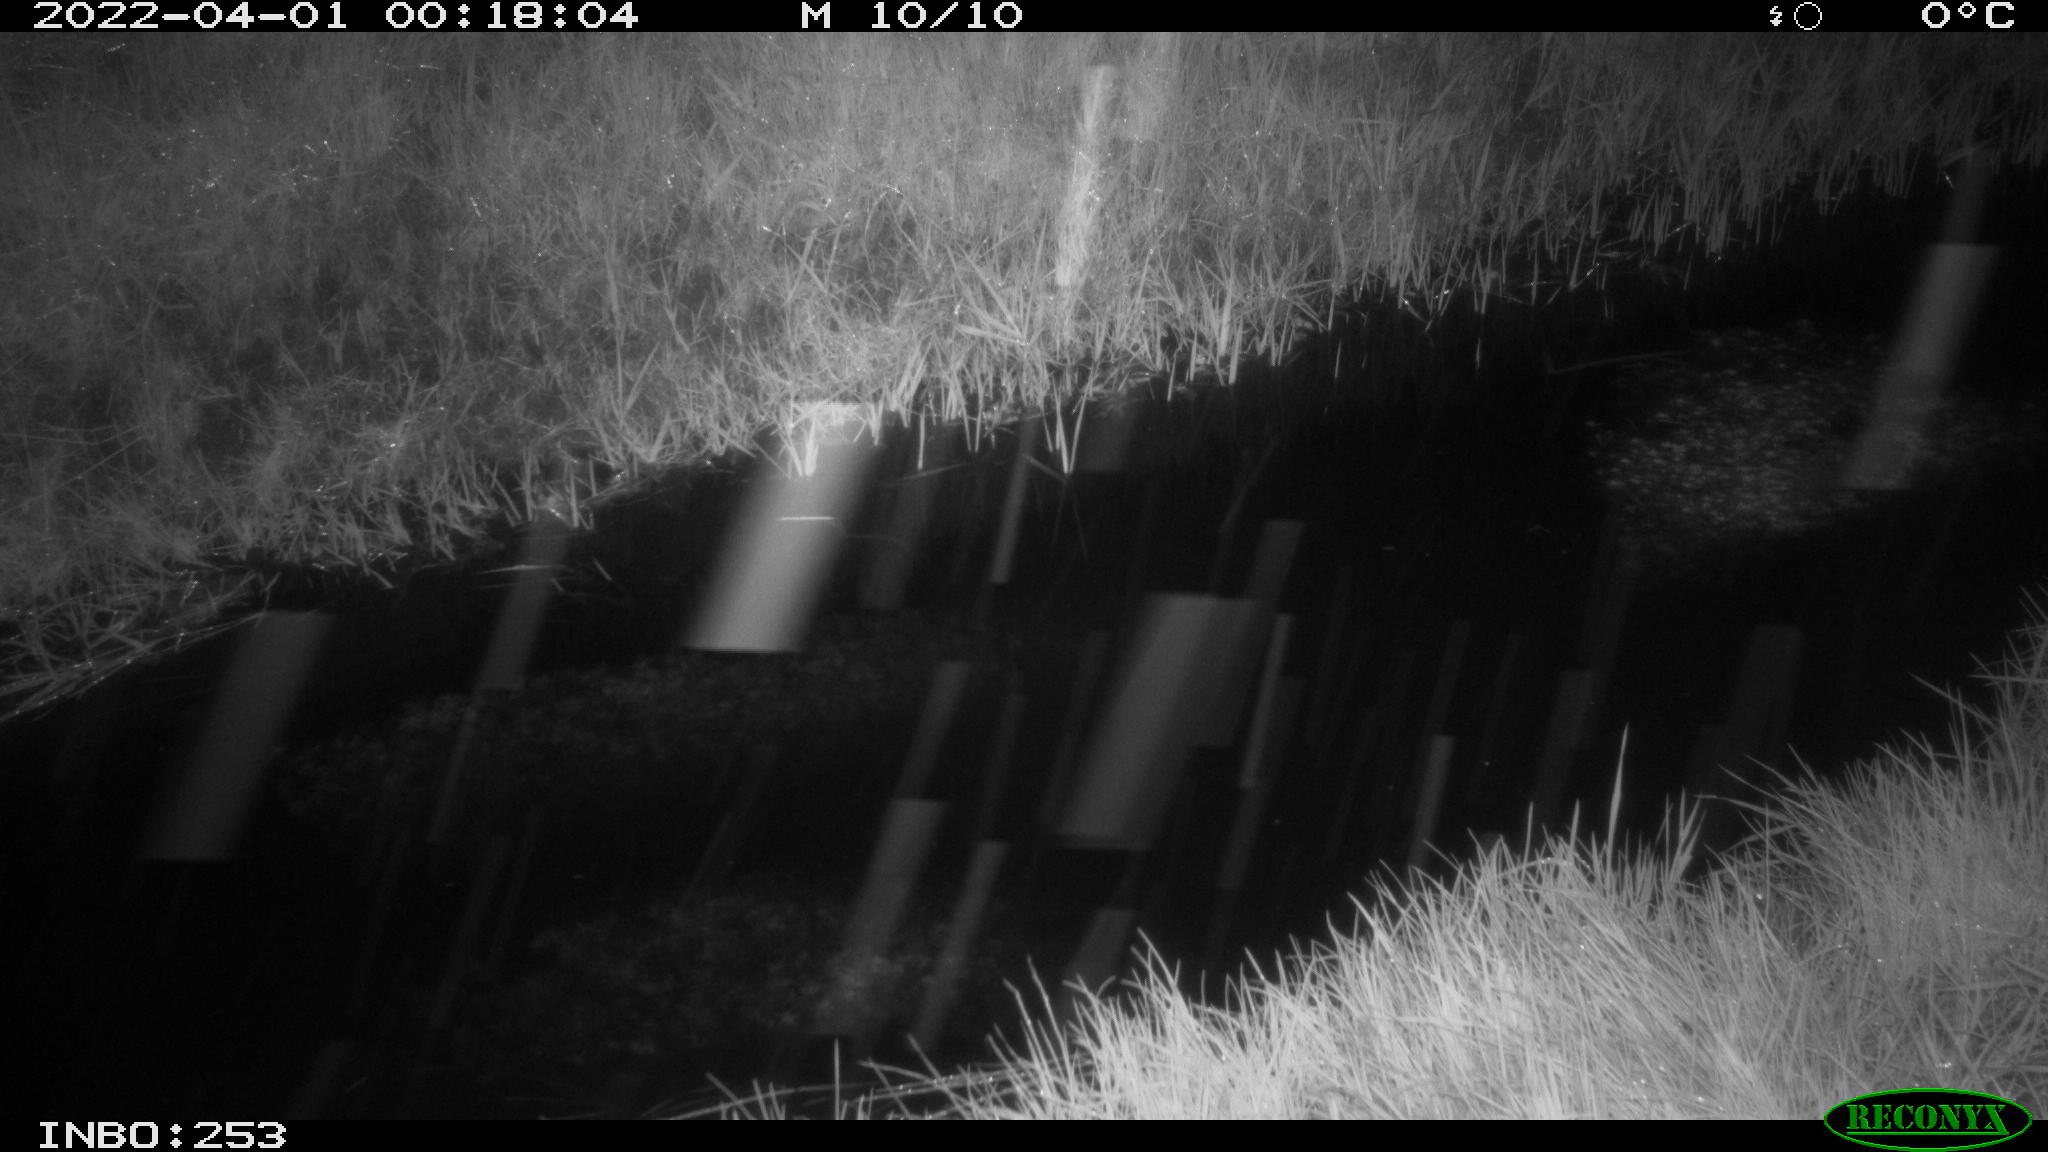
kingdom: Animalia
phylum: Chordata
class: Aves
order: Anseriformes
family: Anatidae
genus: Anas
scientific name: Anas platyrhynchos
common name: Mallard
